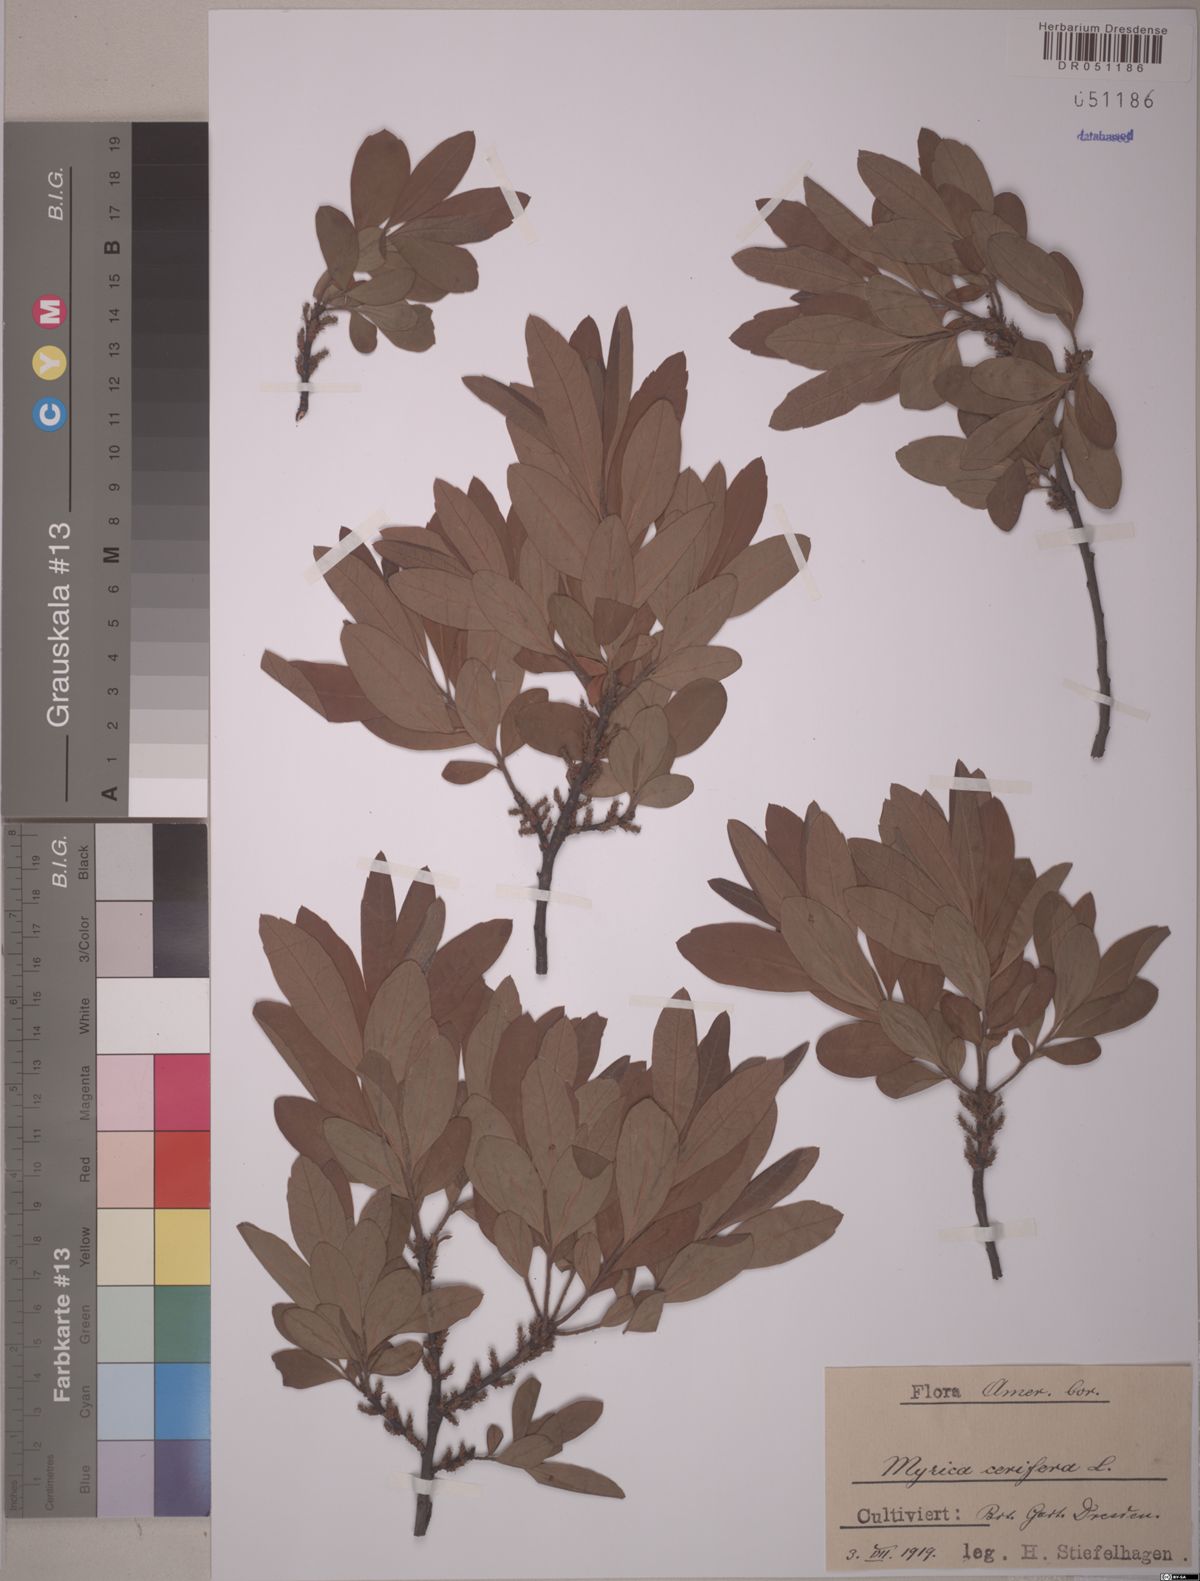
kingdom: Plantae
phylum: Tracheophyta
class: Magnoliopsida
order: Fagales
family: Myricaceae
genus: Morella
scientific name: Morella cerifera
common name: Wax myrtle
